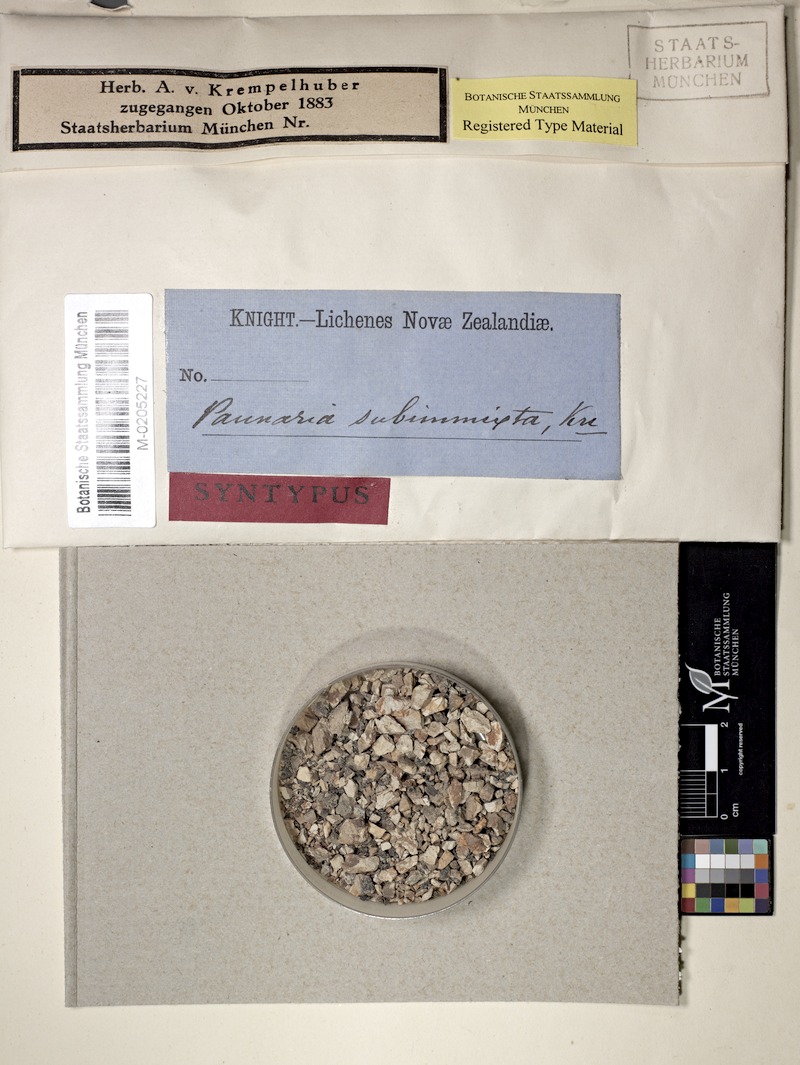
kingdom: Fungi
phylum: Ascomycota
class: Lecanoromycetes
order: Peltigerales
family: Pannariaceae
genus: Fuscopannaria
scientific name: Fuscopannaria subimmixta
